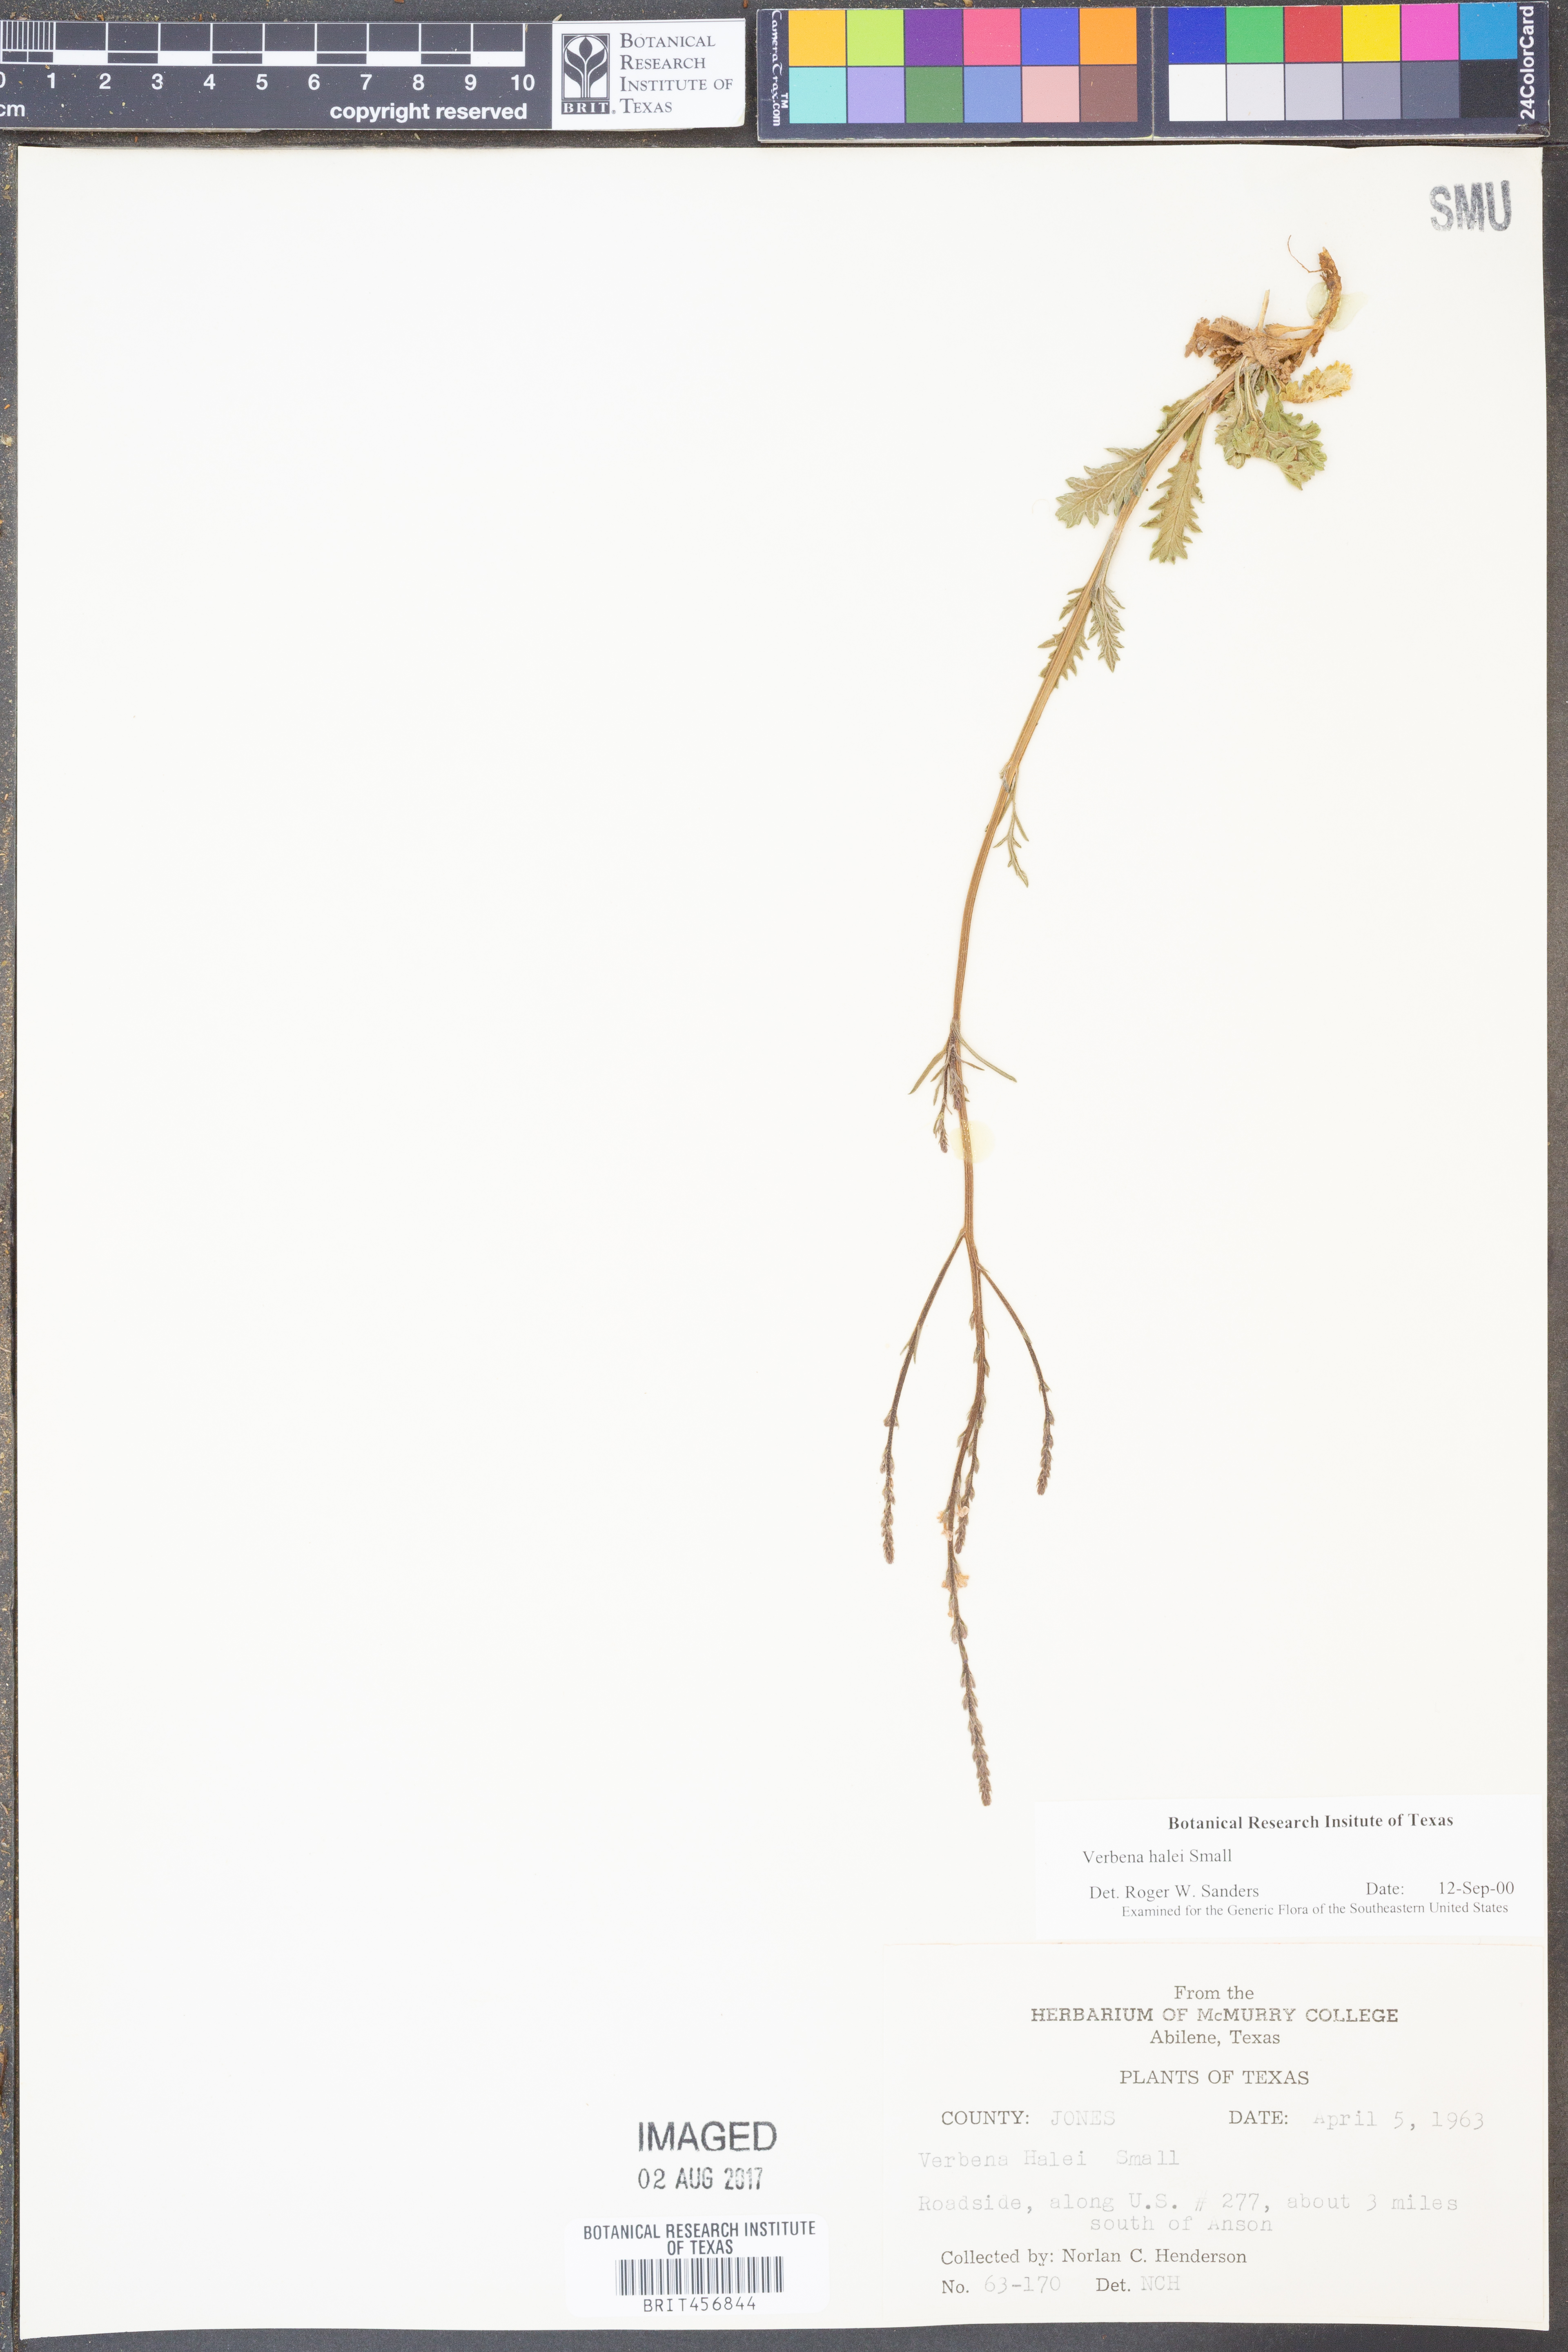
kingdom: Plantae
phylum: Tracheophyta
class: Magnoliopsida
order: Lamiales
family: Verbenaceae
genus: Verbena
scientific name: Verbena halei
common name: Texas vervain
